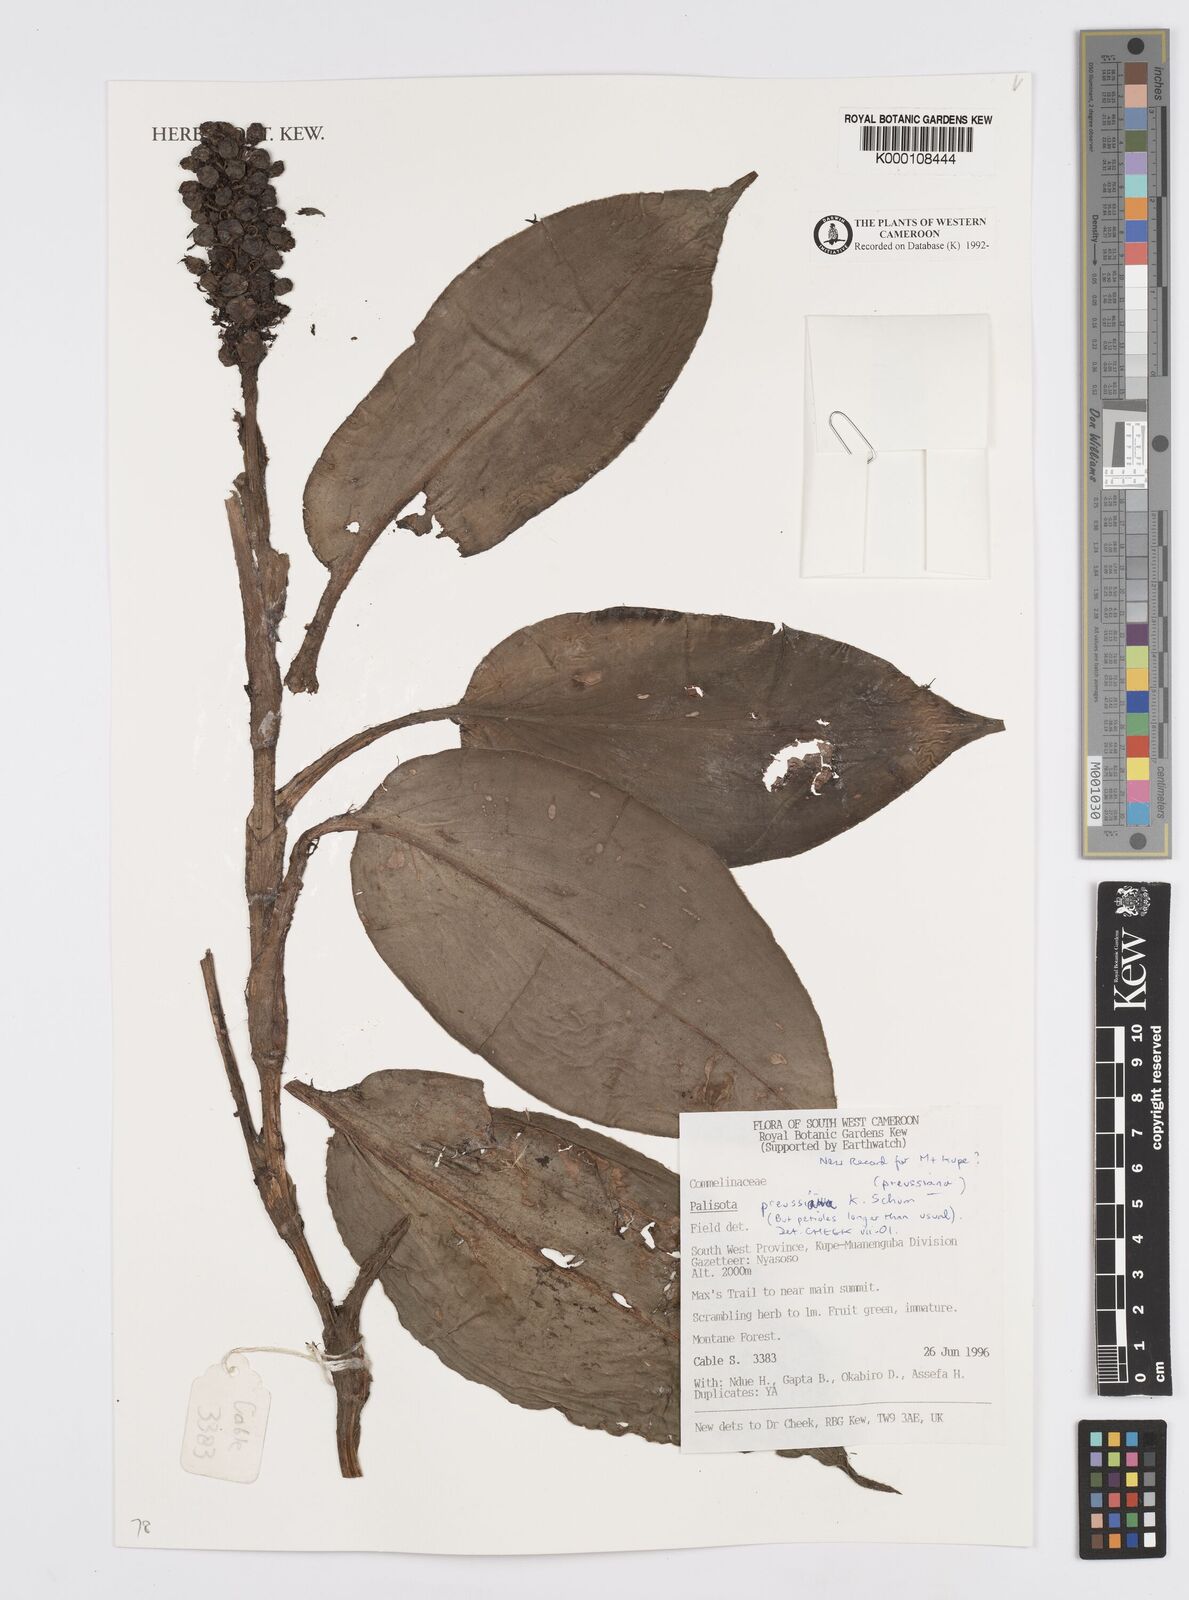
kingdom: Plantae
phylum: Tracheophyta
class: Liliopsida
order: Commelinales
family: Commelinaceae
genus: Palisota
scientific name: Palisota preussiana
